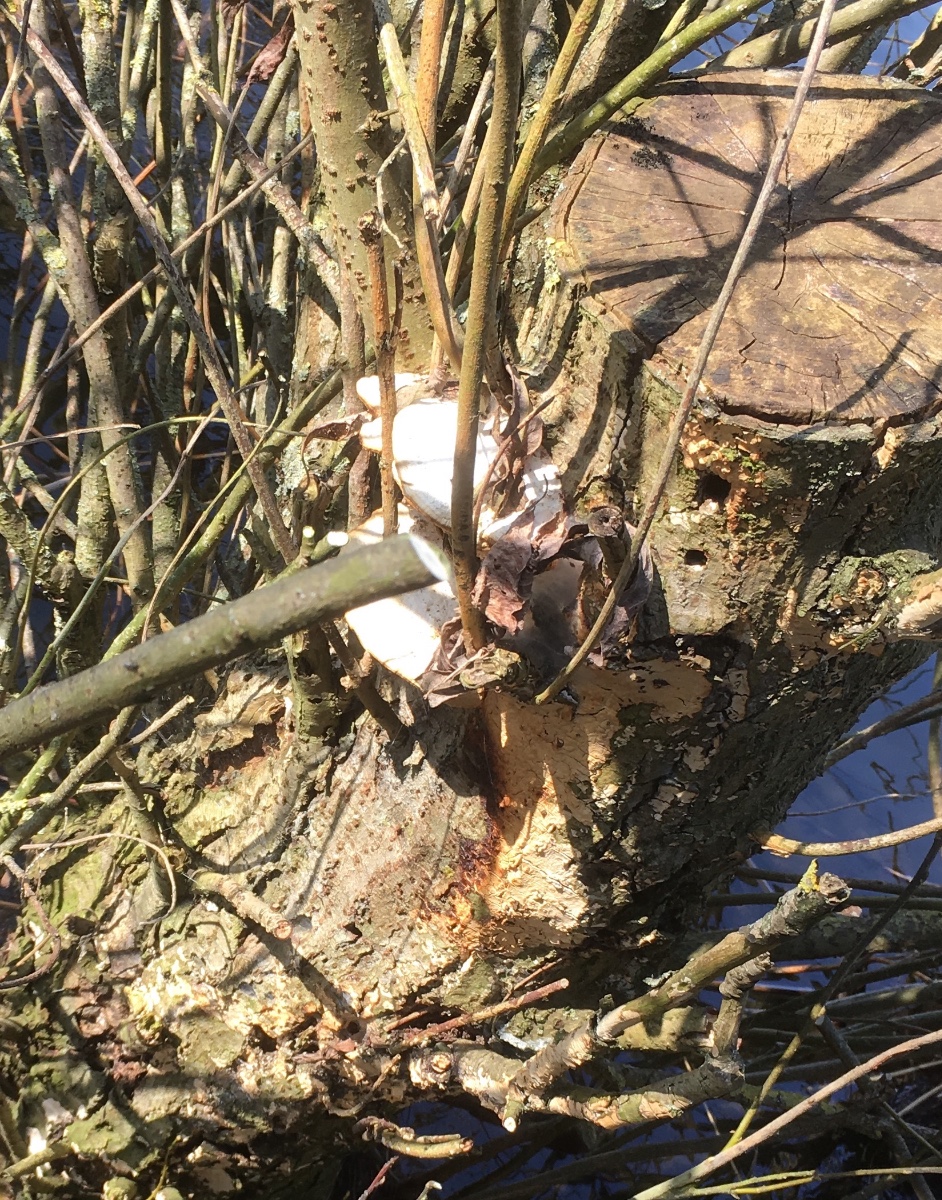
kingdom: Fungi
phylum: Basidiomycota
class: Agaricomycetes
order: Polyporales
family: Polyporaceae
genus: Trametes
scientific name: Trametes suaveolens
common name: vellugtende læderporesvamp
